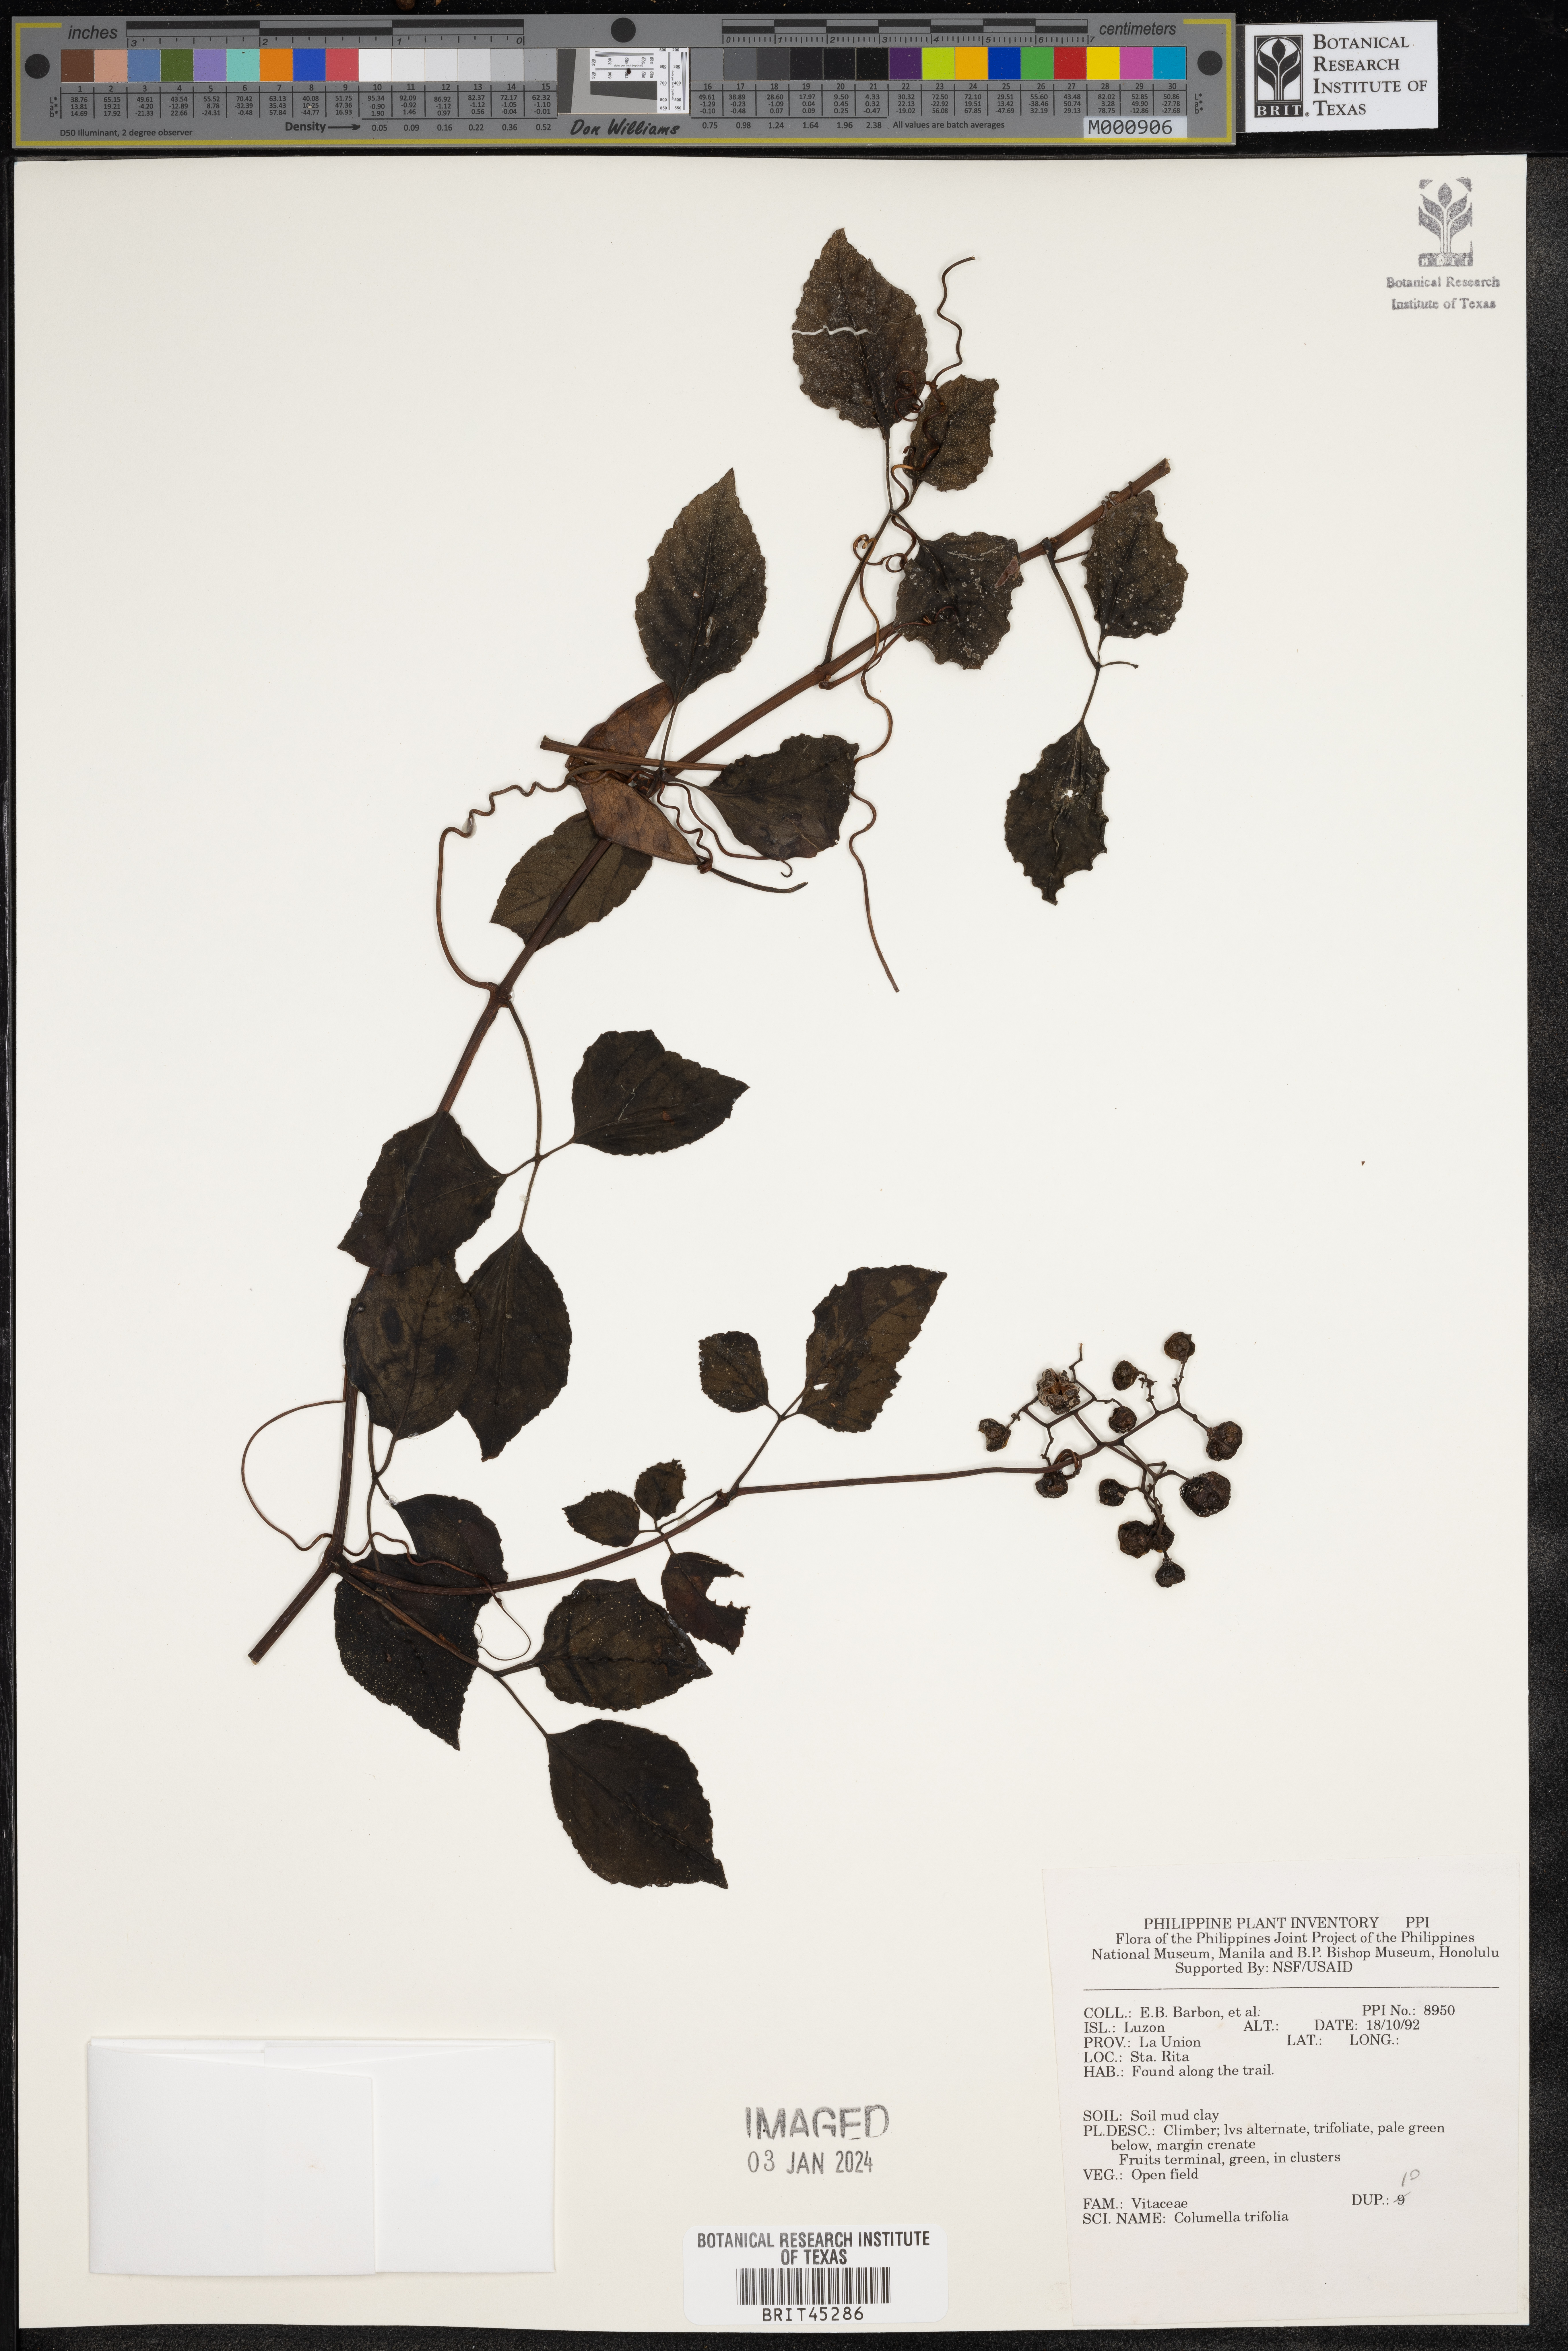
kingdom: Plantae
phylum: Tracheophyta
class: Magnoliopsida
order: Vitales
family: Vitaceae
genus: Causonis
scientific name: Causonis trifolia
